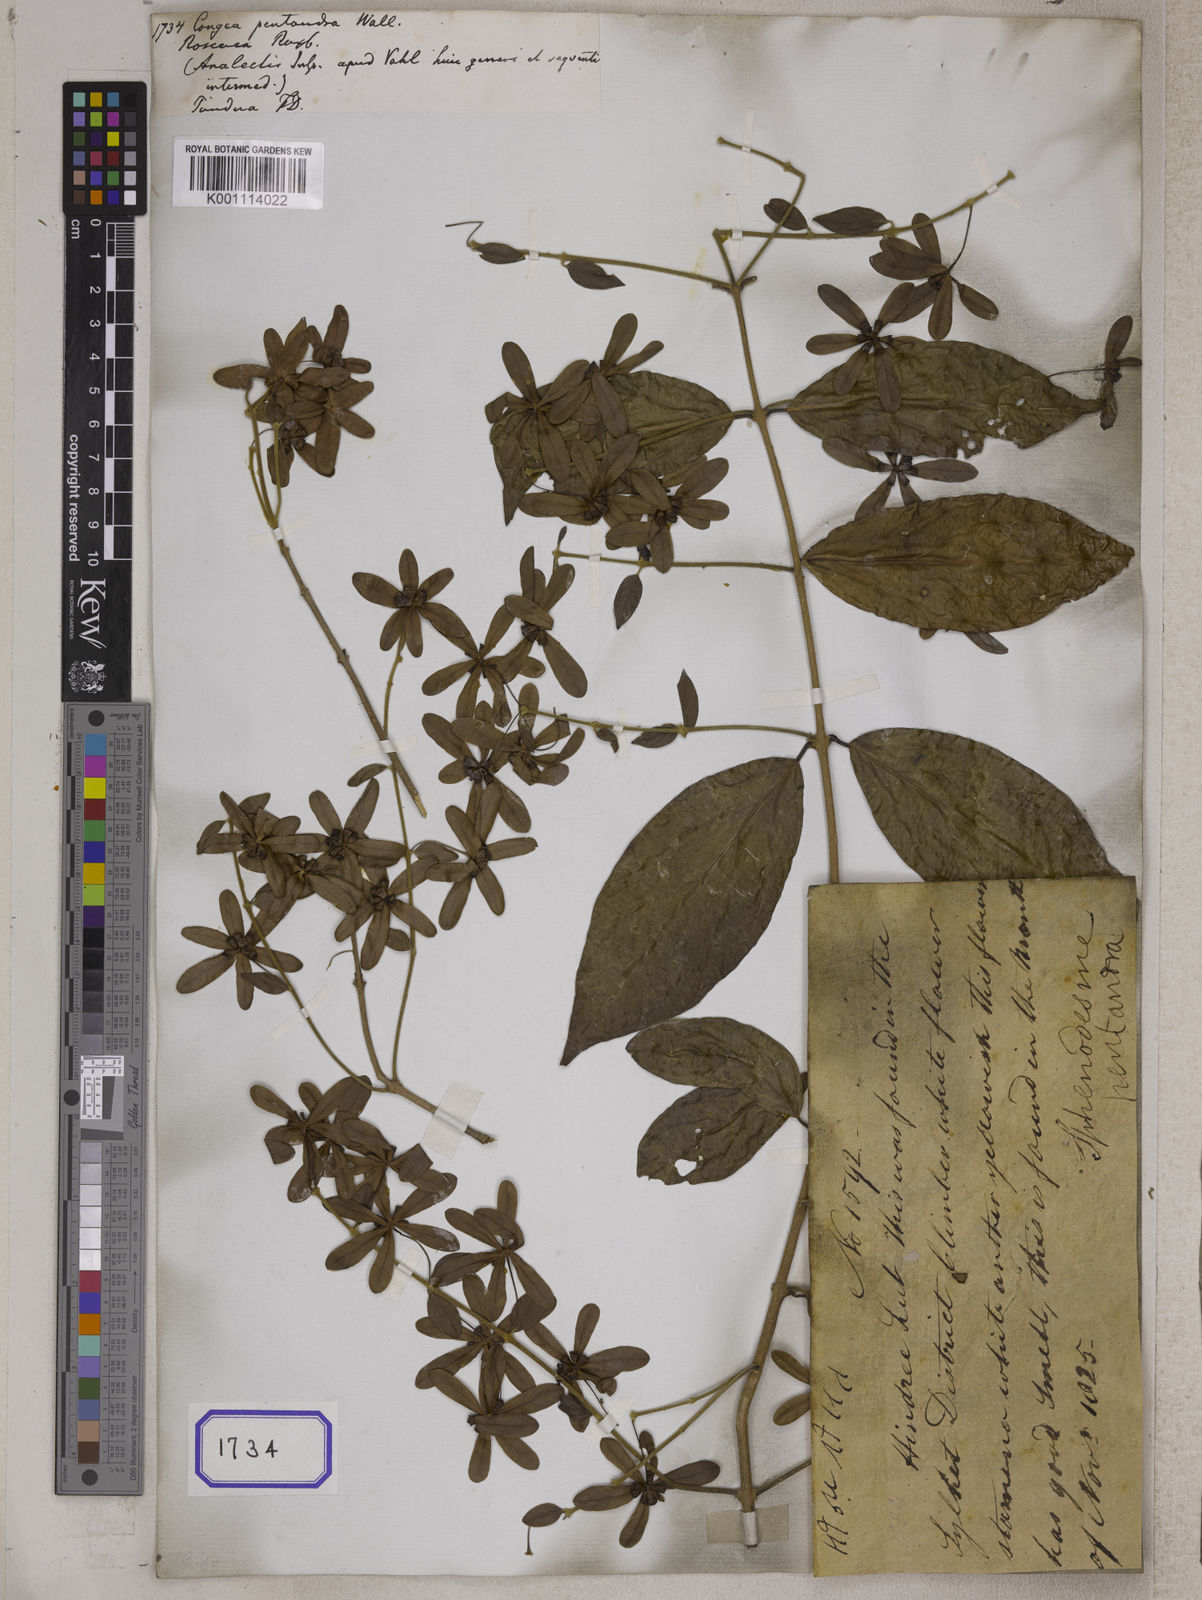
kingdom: Plantae
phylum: Tracheophyta
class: Magnoliopsida
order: Lamiales
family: Lamiaceae
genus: Sphenodesme
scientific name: Sphenodesme pentandra
